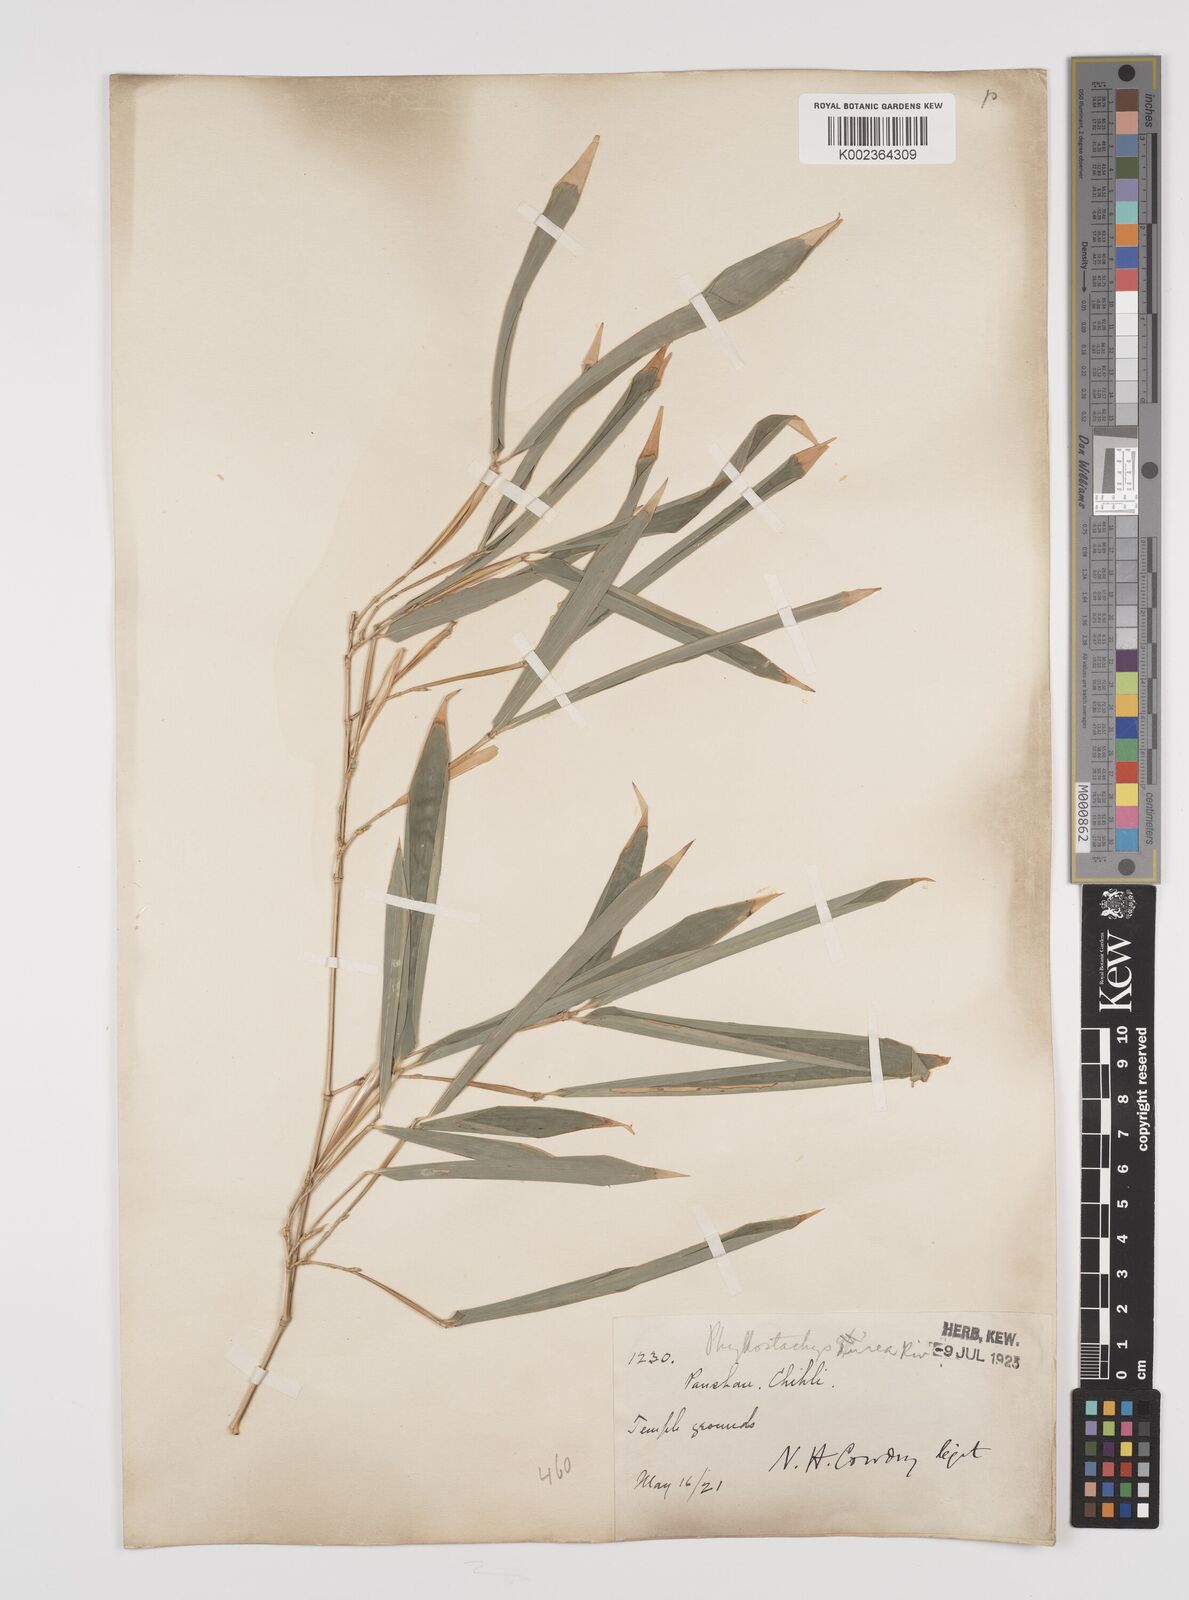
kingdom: Plantae
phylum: Tracheophyta
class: Liliopsida
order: Poales
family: Poaceae
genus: Phyllostachys
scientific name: Phyllostachys
